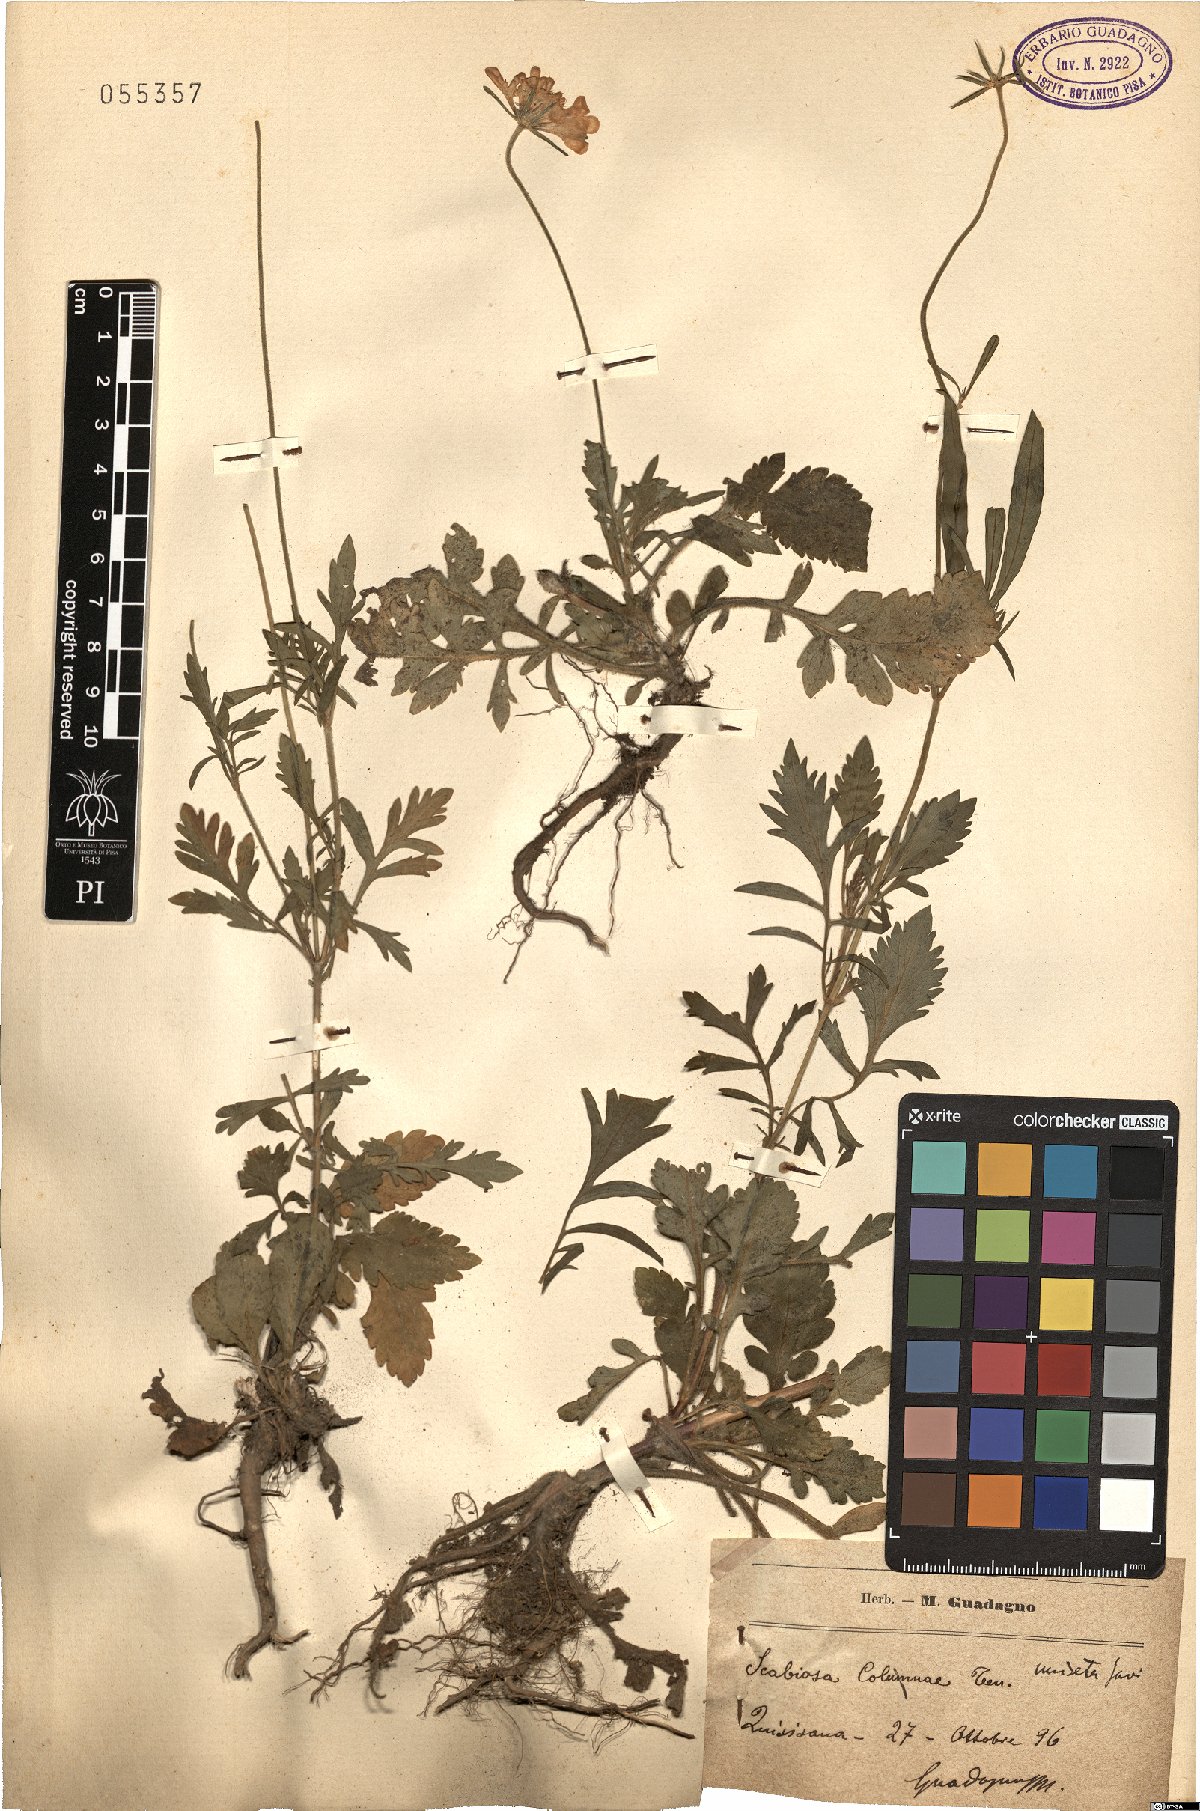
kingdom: Plantae
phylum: Tracheophyta
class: Magnoliopsida
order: Dipsacales
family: Caprifoliaceae
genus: Scabiosa
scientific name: Scabiosa columbaria
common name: Small scabious
